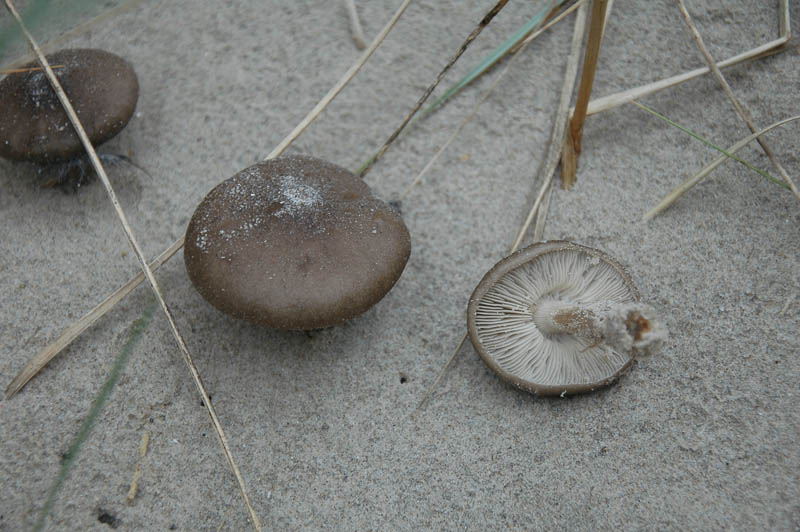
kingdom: Fungi
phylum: Basidiomycota
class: Agaricomycetes
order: Agaricales
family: Tricholomataceae
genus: Melanoleuca
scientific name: Melanoleuca ammophila
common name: gråbladet munkehat
